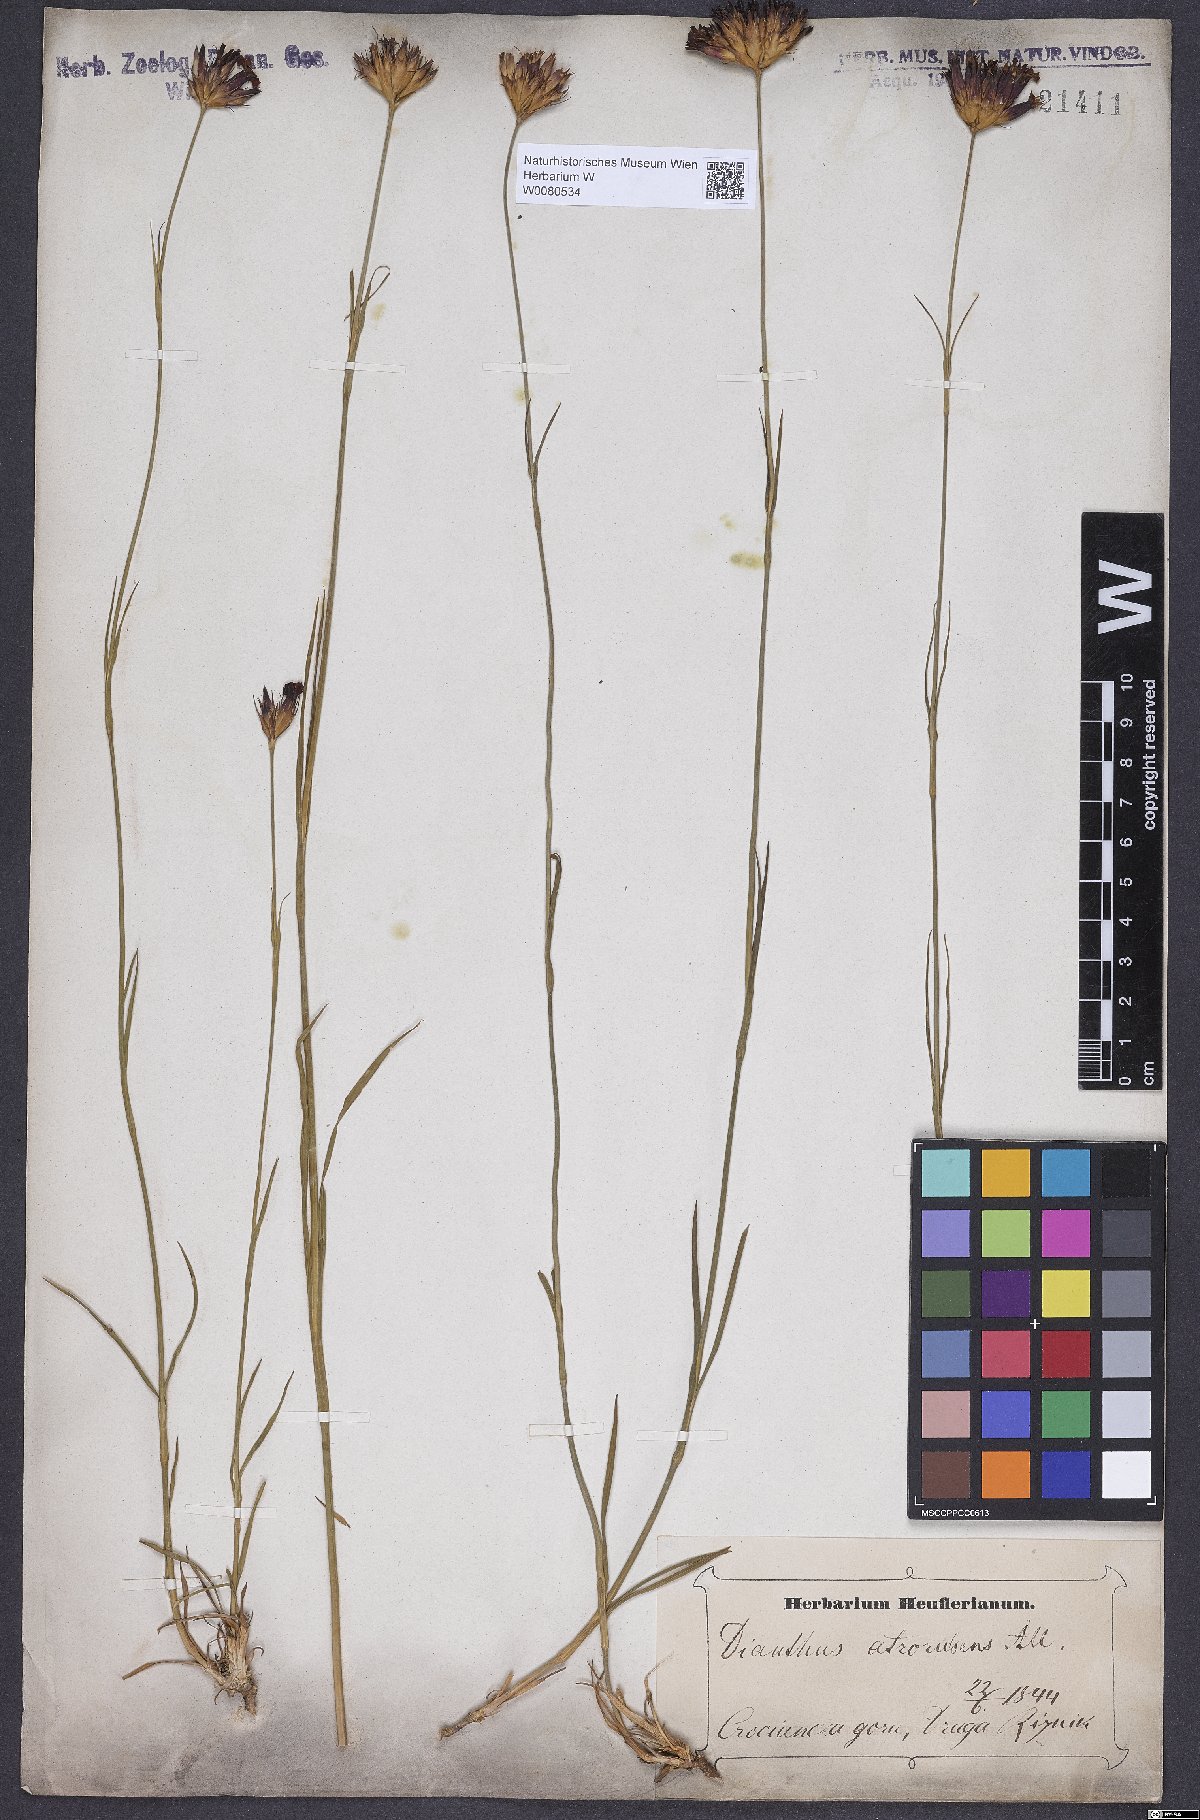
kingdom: Plantae
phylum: Tracheophyta
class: Magnoliopsida
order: Caryophyllales
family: Caryophyllaceae
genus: Dianthus
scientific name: Dianthus carthusianorum
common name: Carthusian pink
